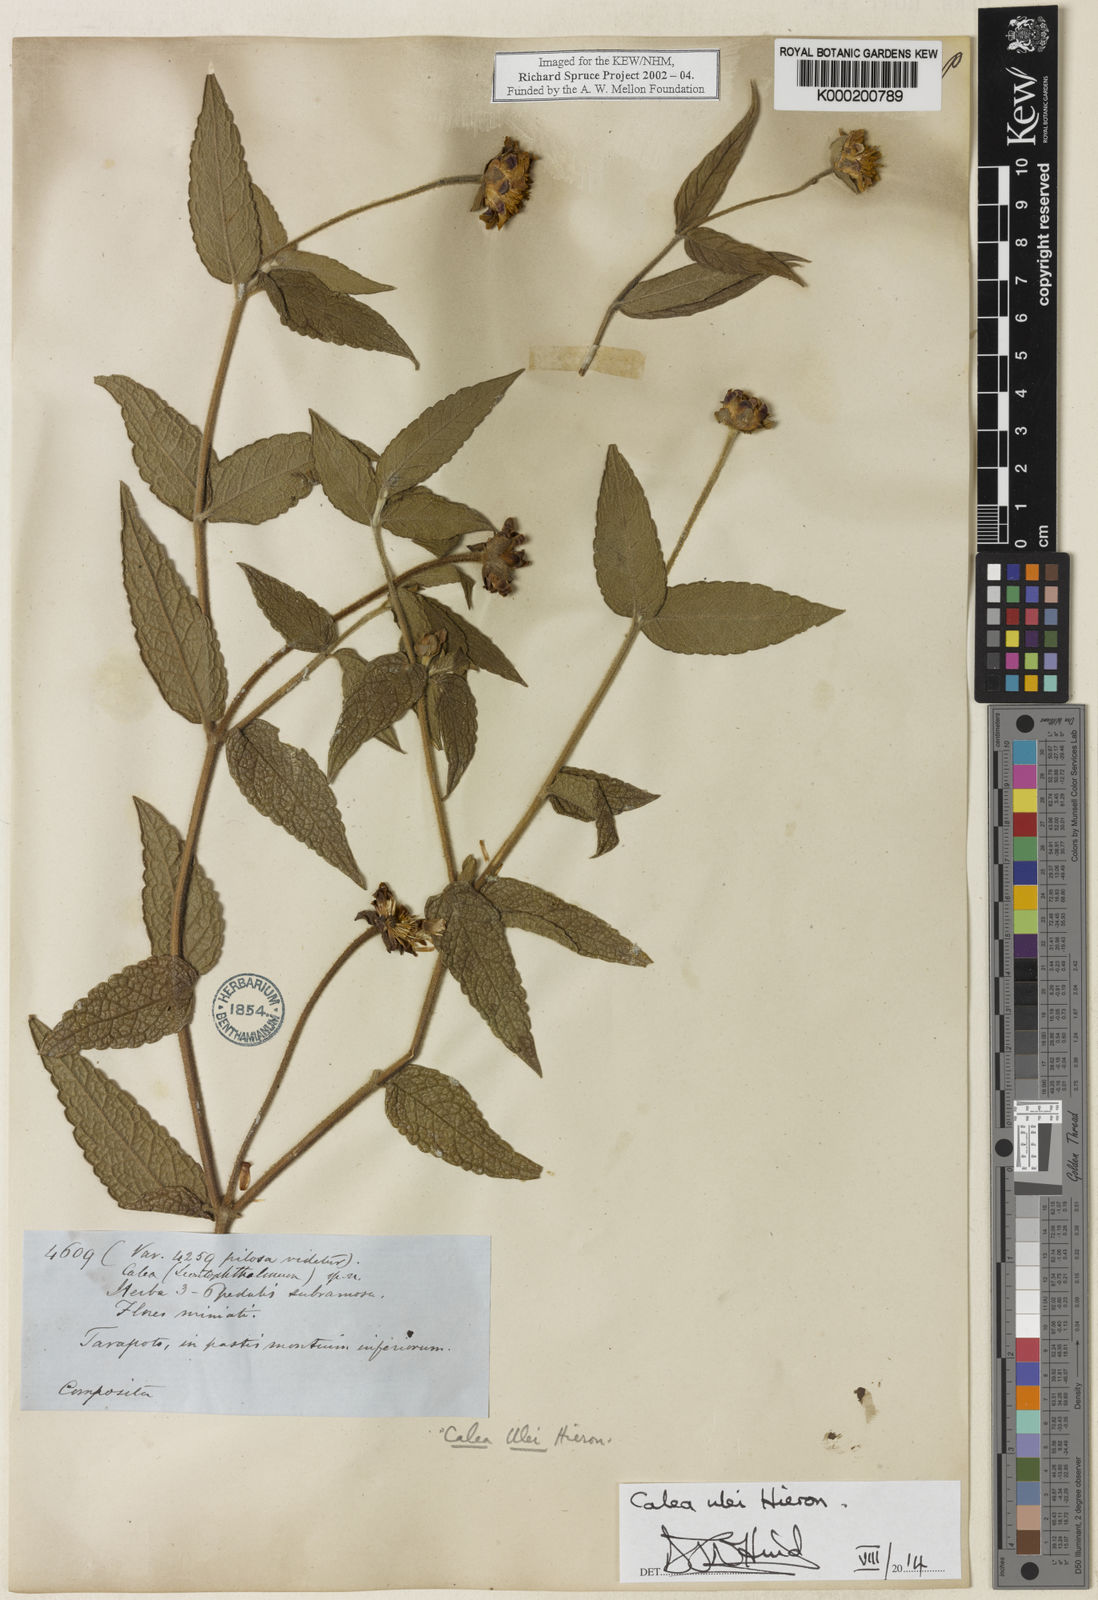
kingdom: Plantae
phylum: Tracheophyta
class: Magnoliopsida
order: Asterales
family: Asteraceae
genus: Calea
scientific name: Calea ulei
